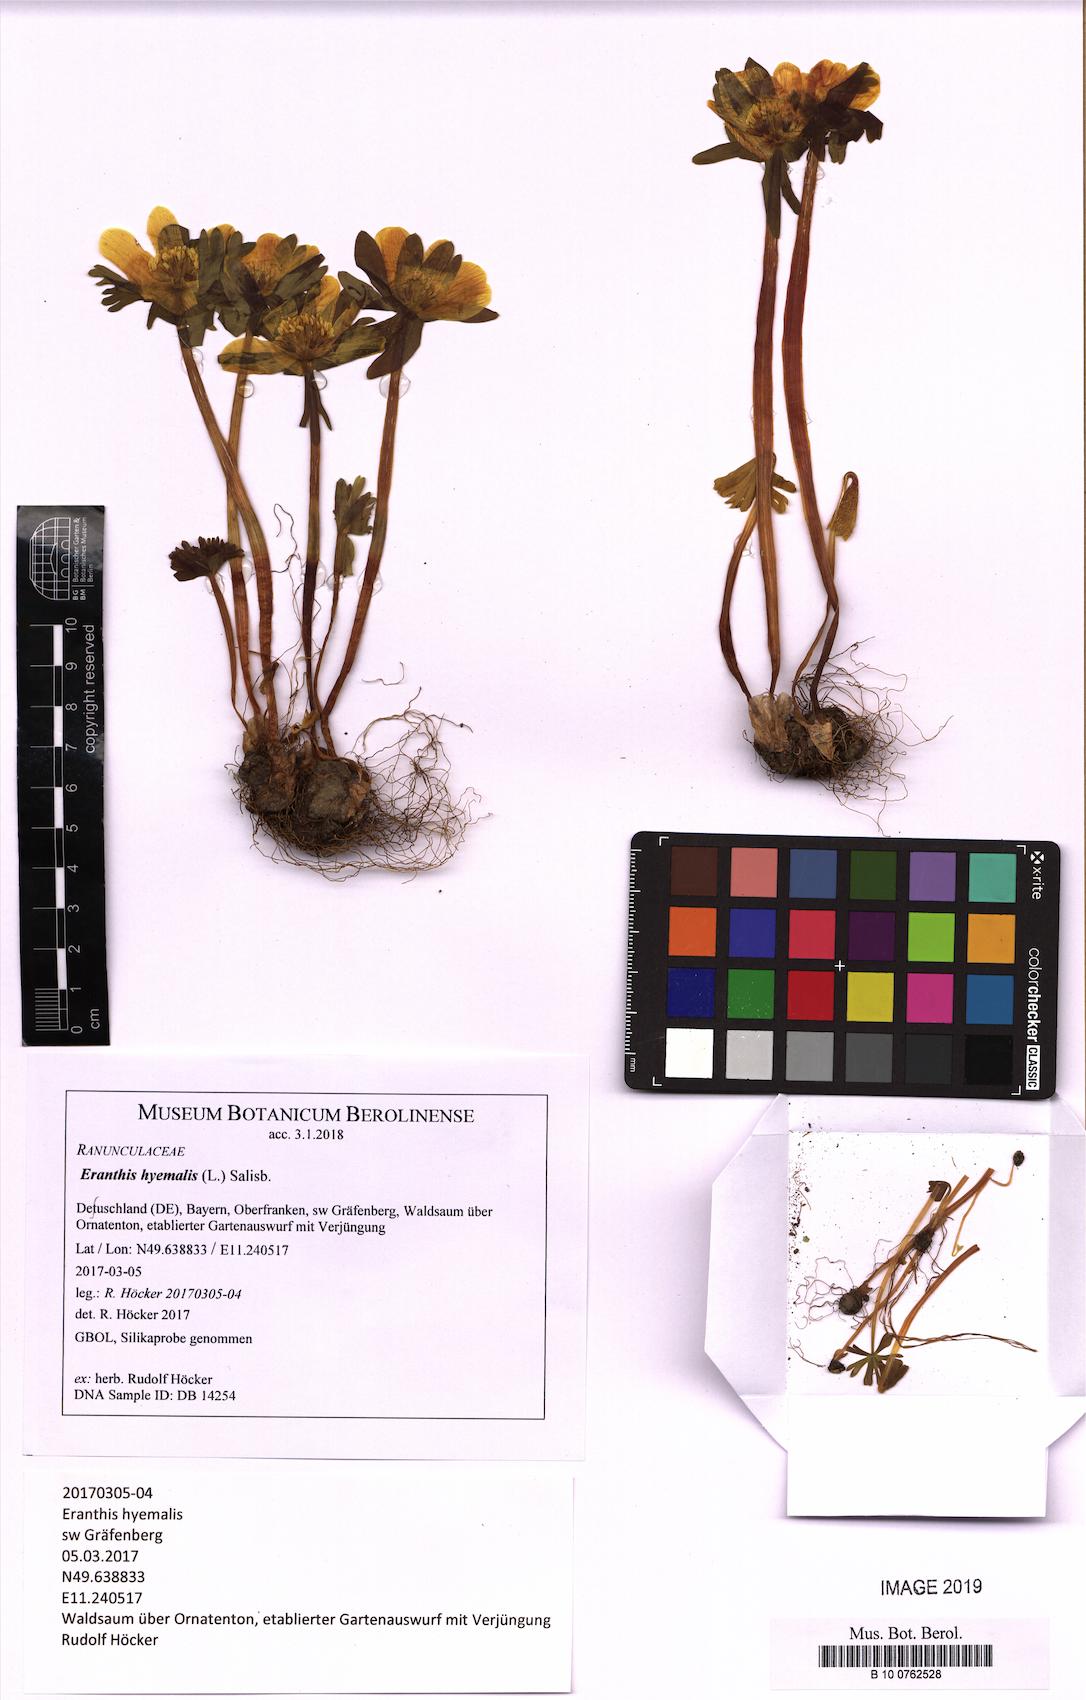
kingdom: Plantae
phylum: Tracheophyta
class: Magnoliopsida
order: Ranunculales
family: Ranunculaceae
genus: Eranthis
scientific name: Eranthis hyemalis
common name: Winter aconite
